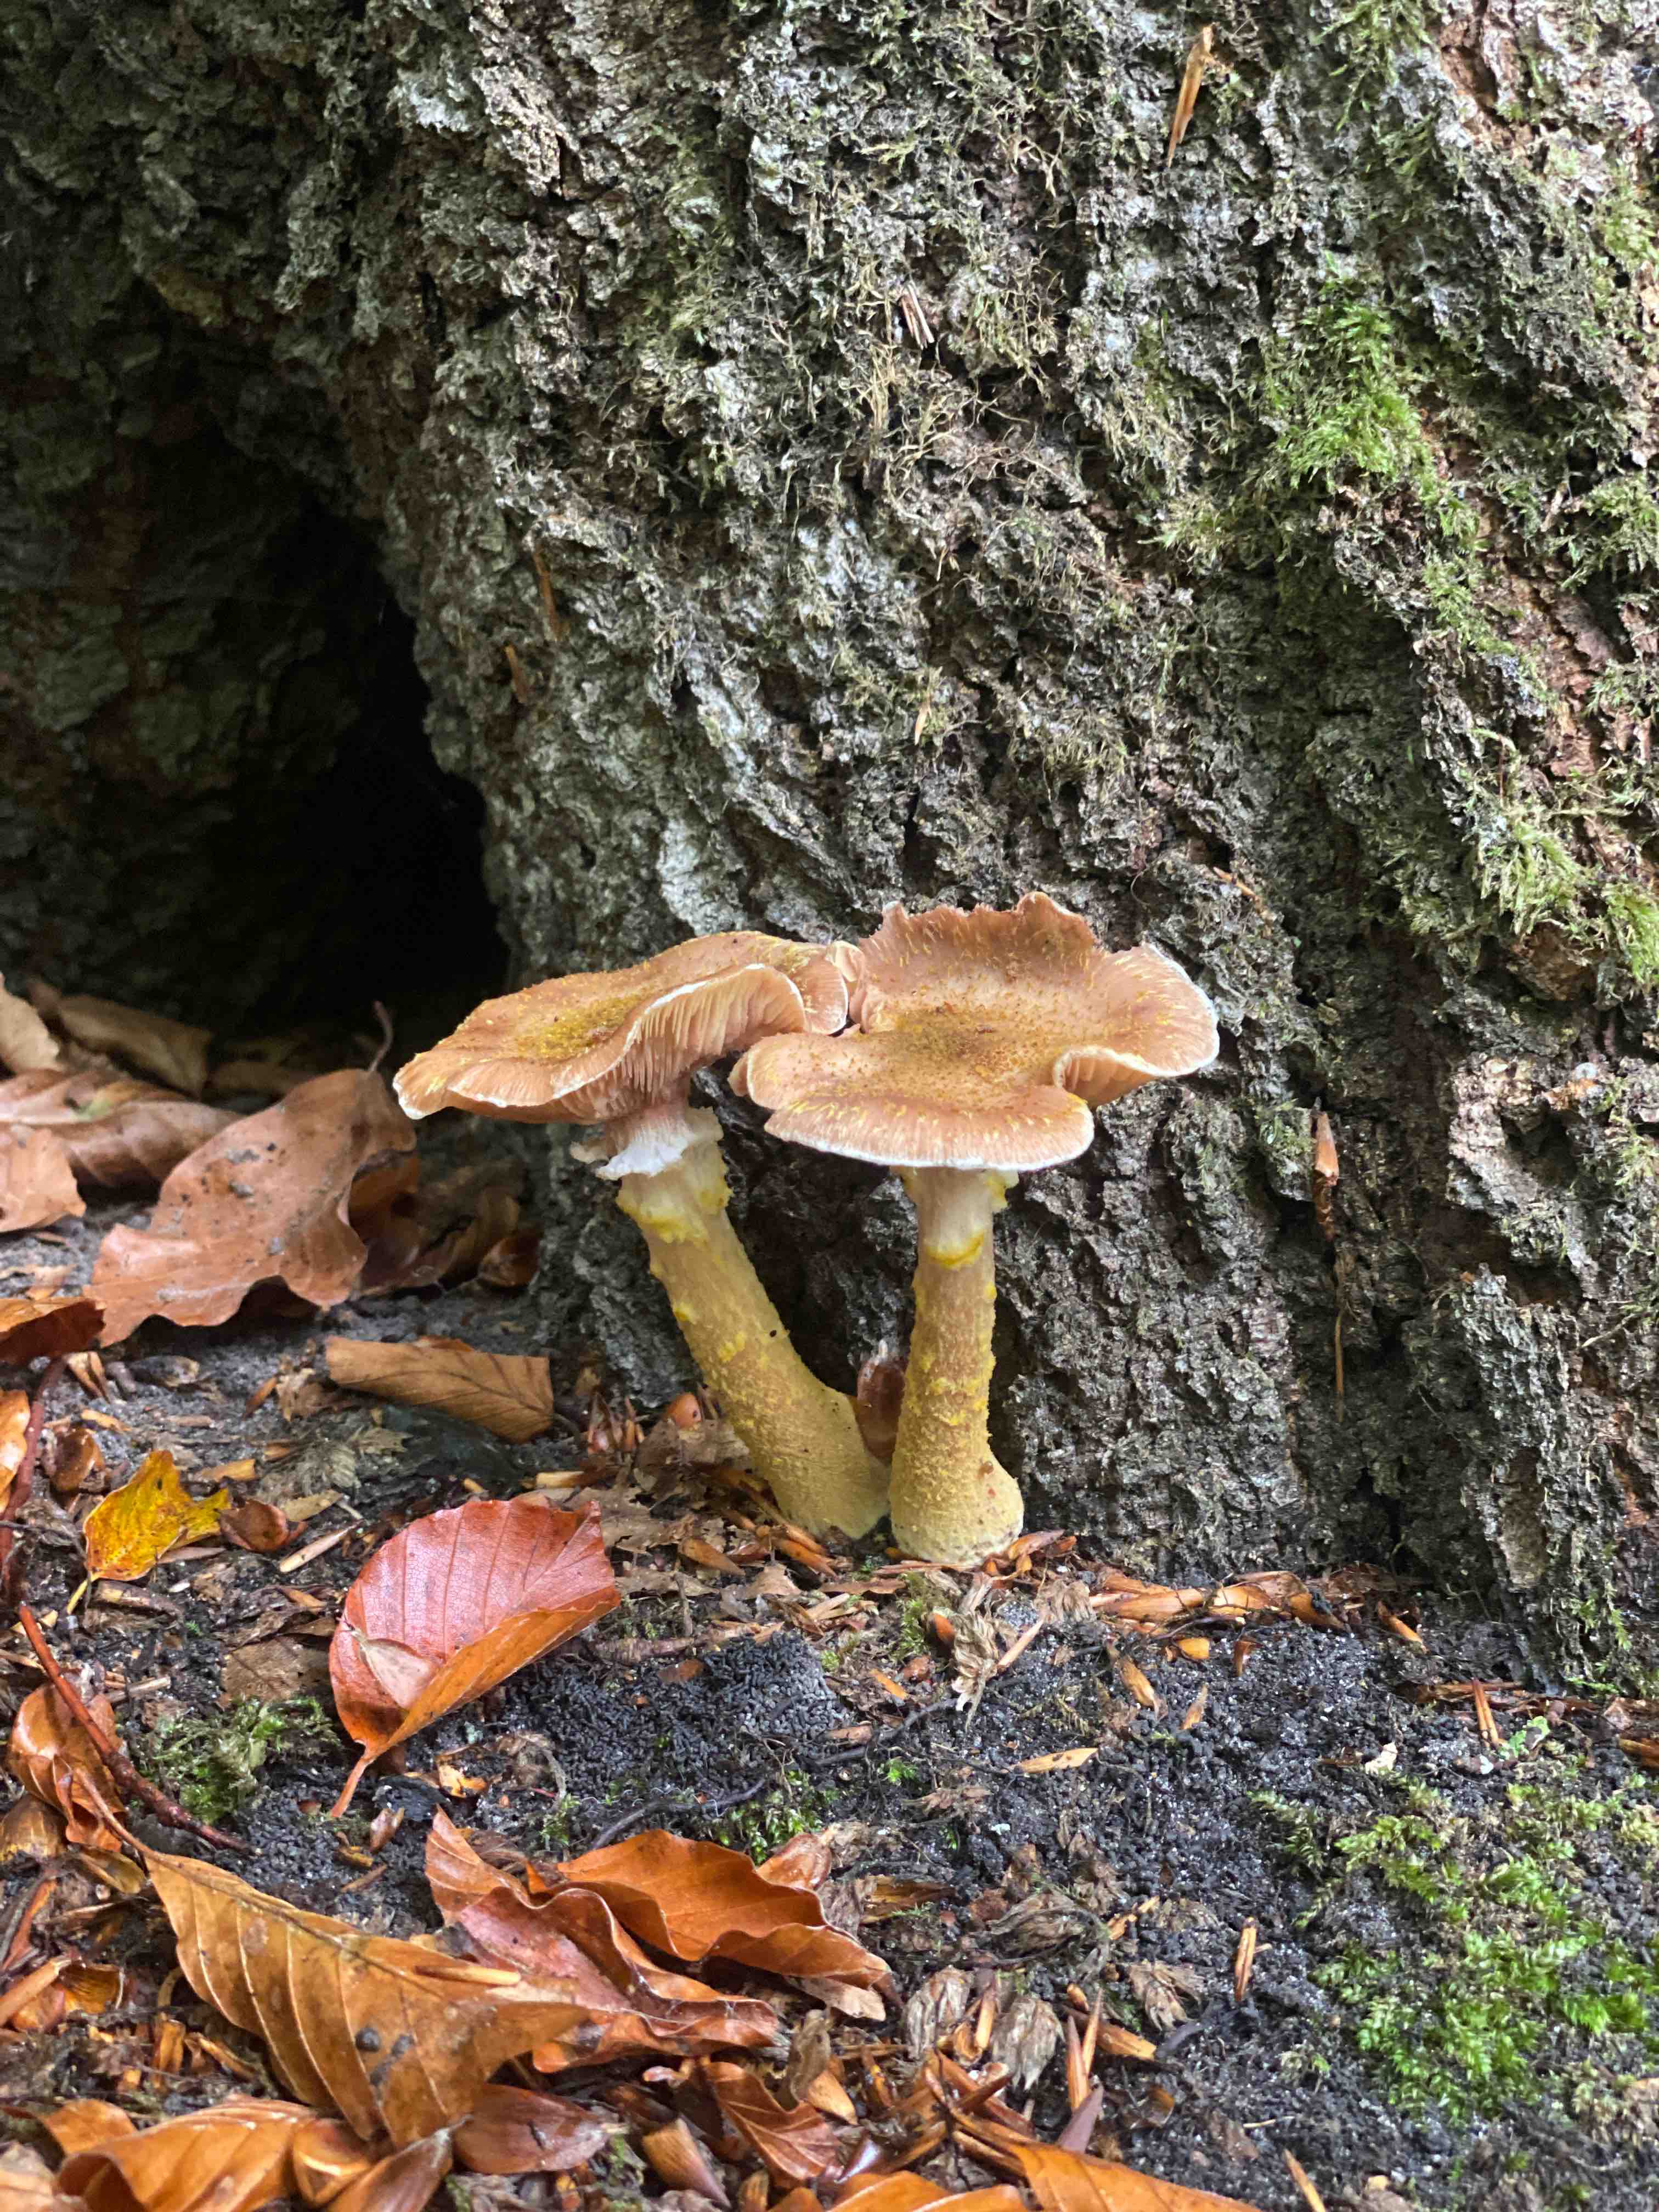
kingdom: Fungi
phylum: Basidiomycota
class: Agaricomycetes
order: Agaricales
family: Physalacriaceae
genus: Armillaria
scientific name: Armillaria lutea
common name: køllestokket honningsvamp
